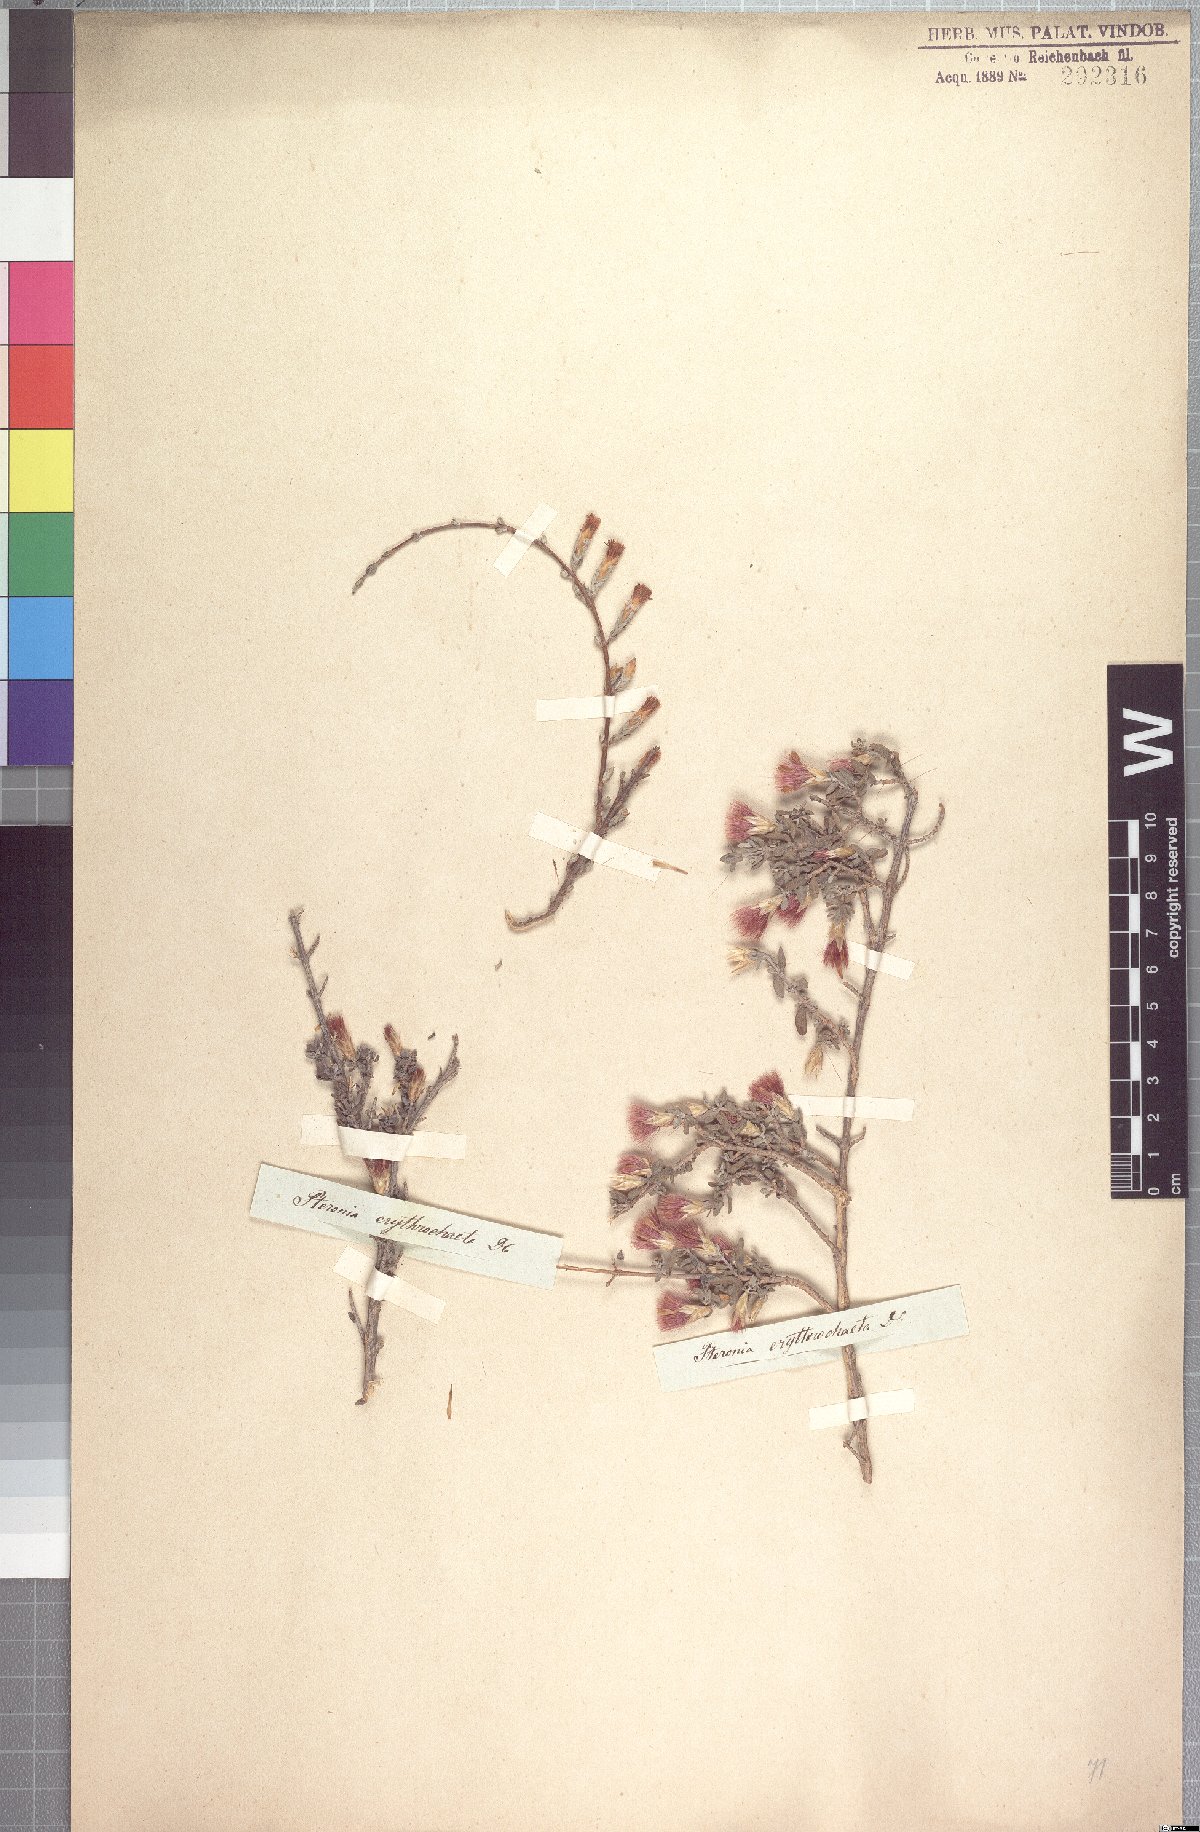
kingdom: Plantae
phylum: Tracheophyta
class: Magnoliopsida
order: Asterales
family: Asteraceae
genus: Pteronia
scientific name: Pteronia erythrochaeta
